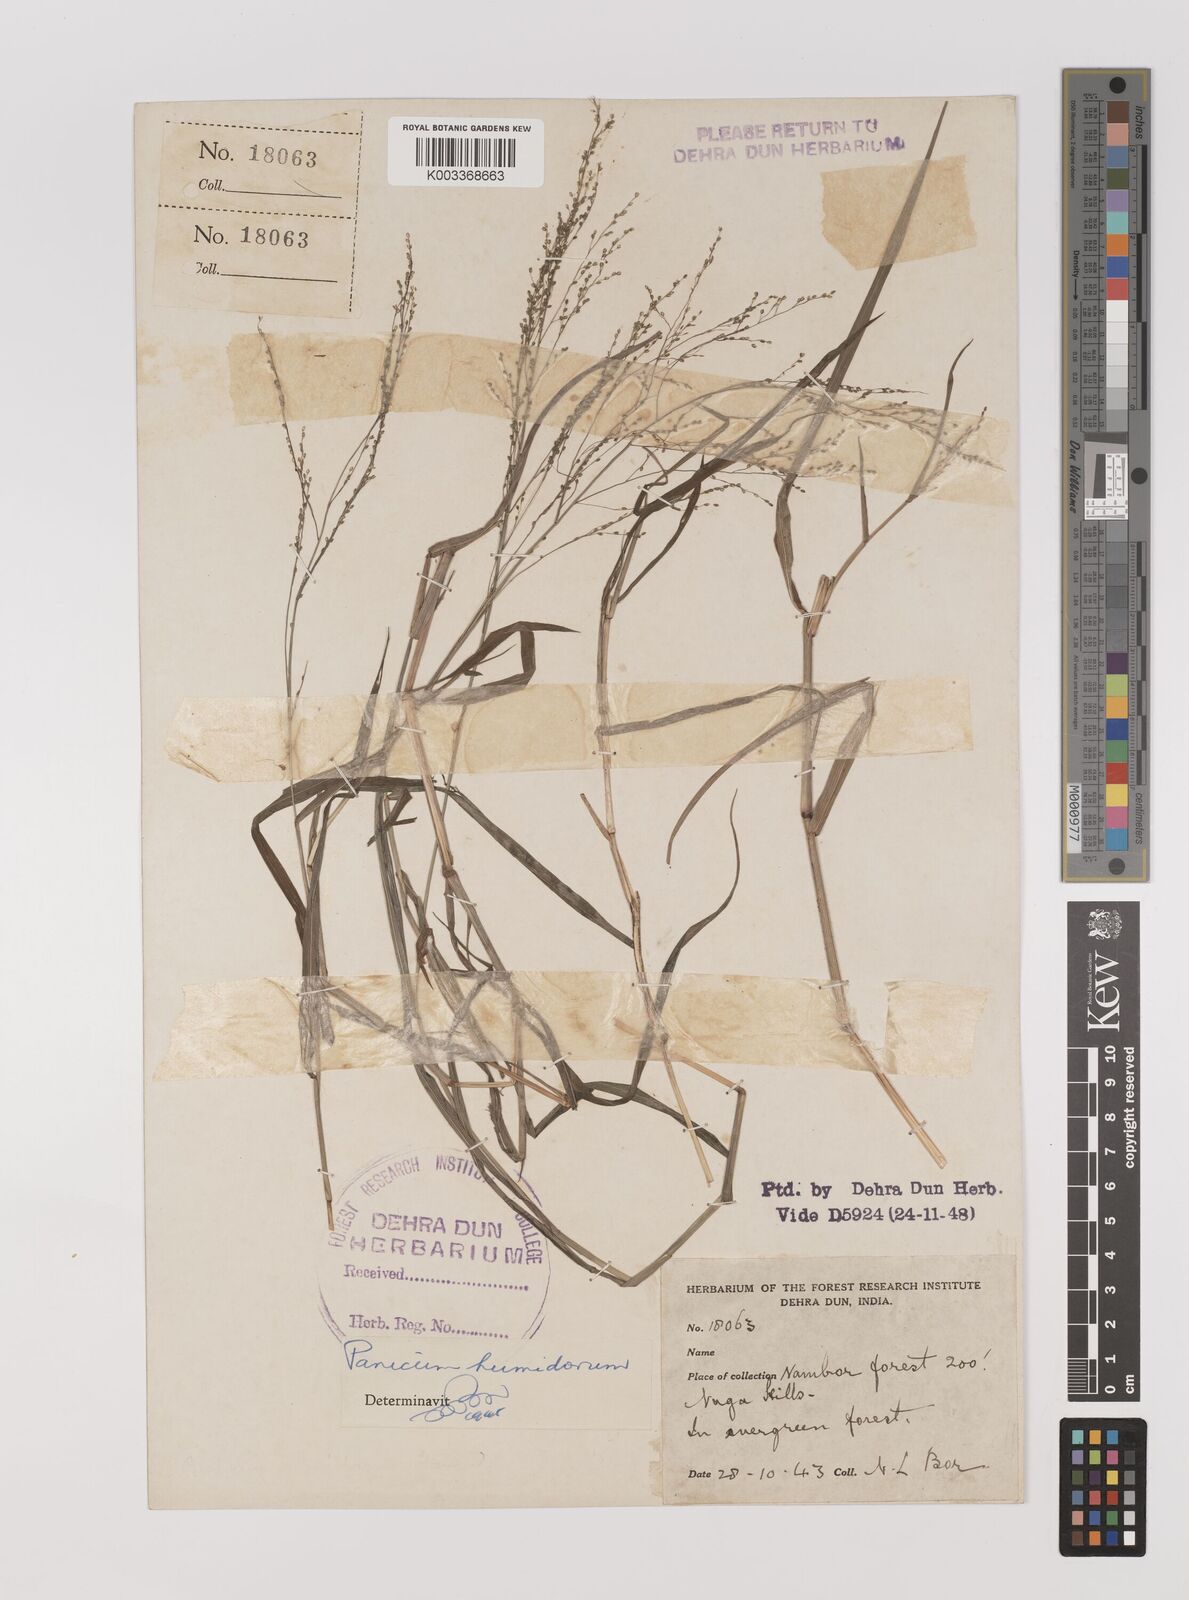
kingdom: Plantae
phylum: Tracheophyta
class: Liliopsida
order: Poales
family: Poaceae
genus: Panicum
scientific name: Panicum humidorum
